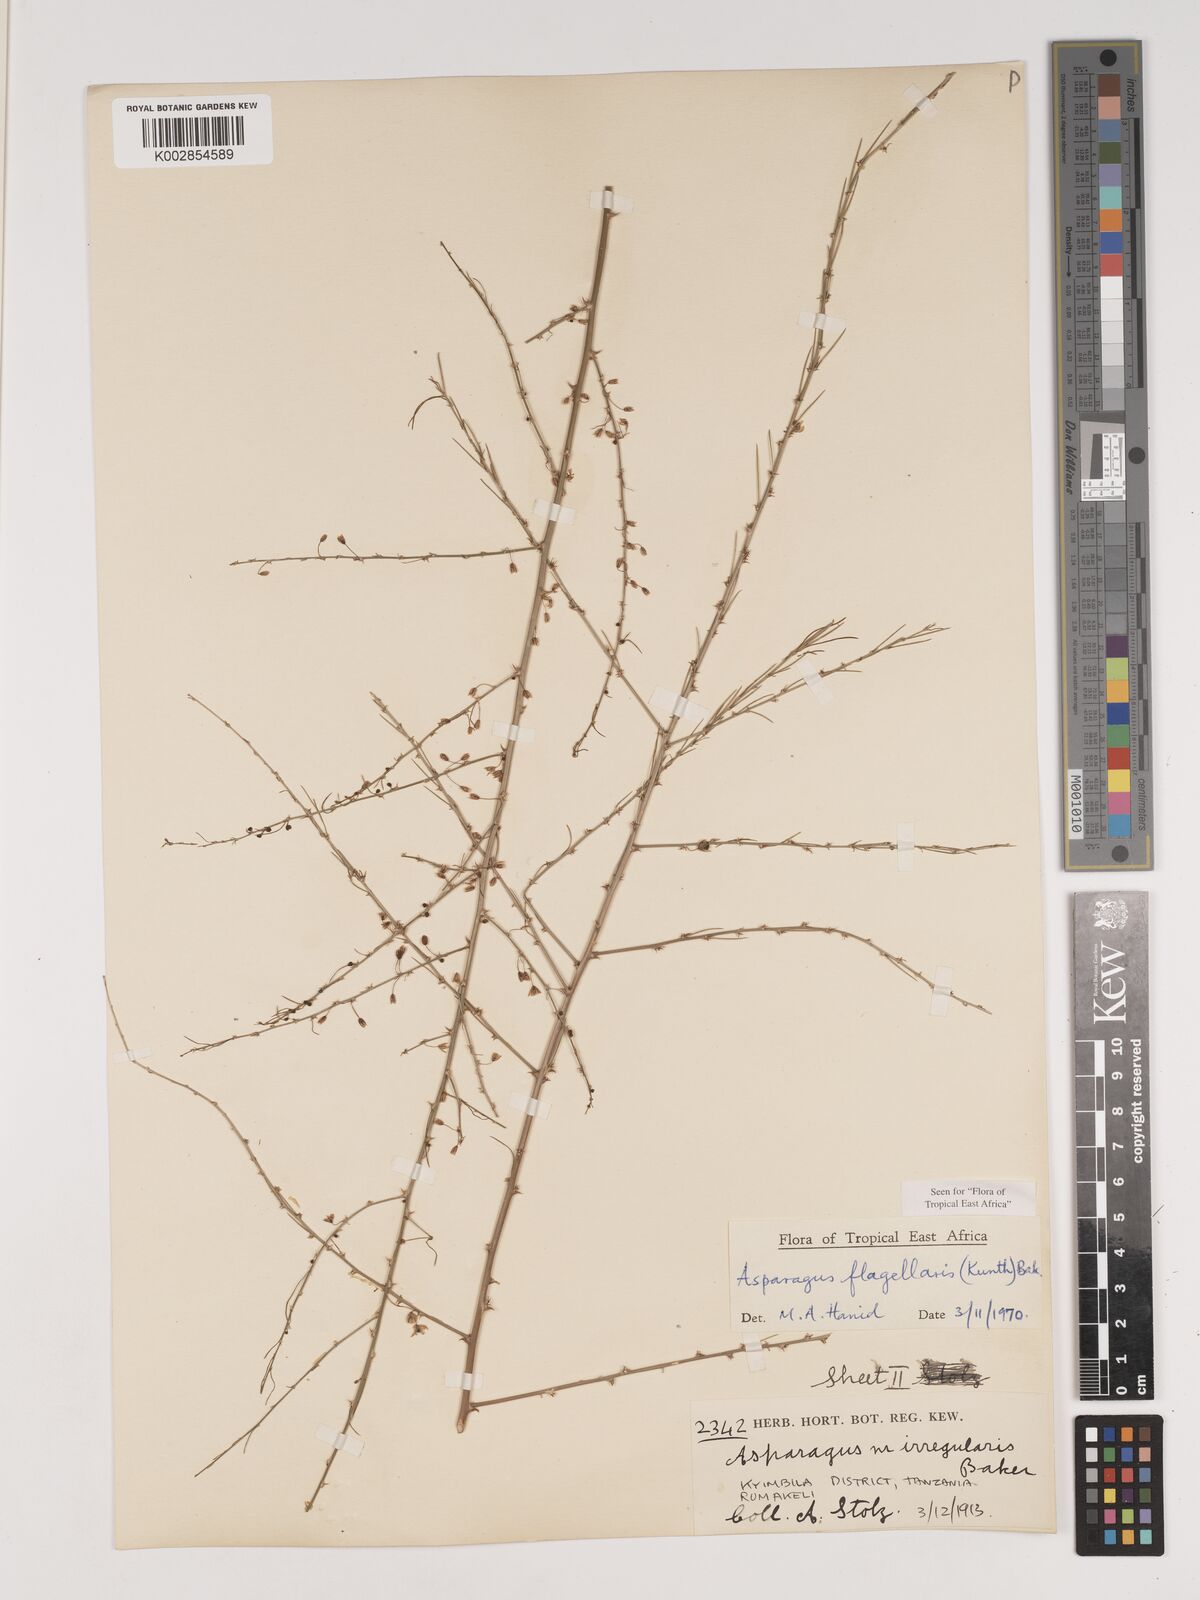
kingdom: Plantae
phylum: Tracheophyta
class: Liliopsida
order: Asparagales
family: Asparagaceae
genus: Asparagus
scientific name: Asparagus flagellaris
